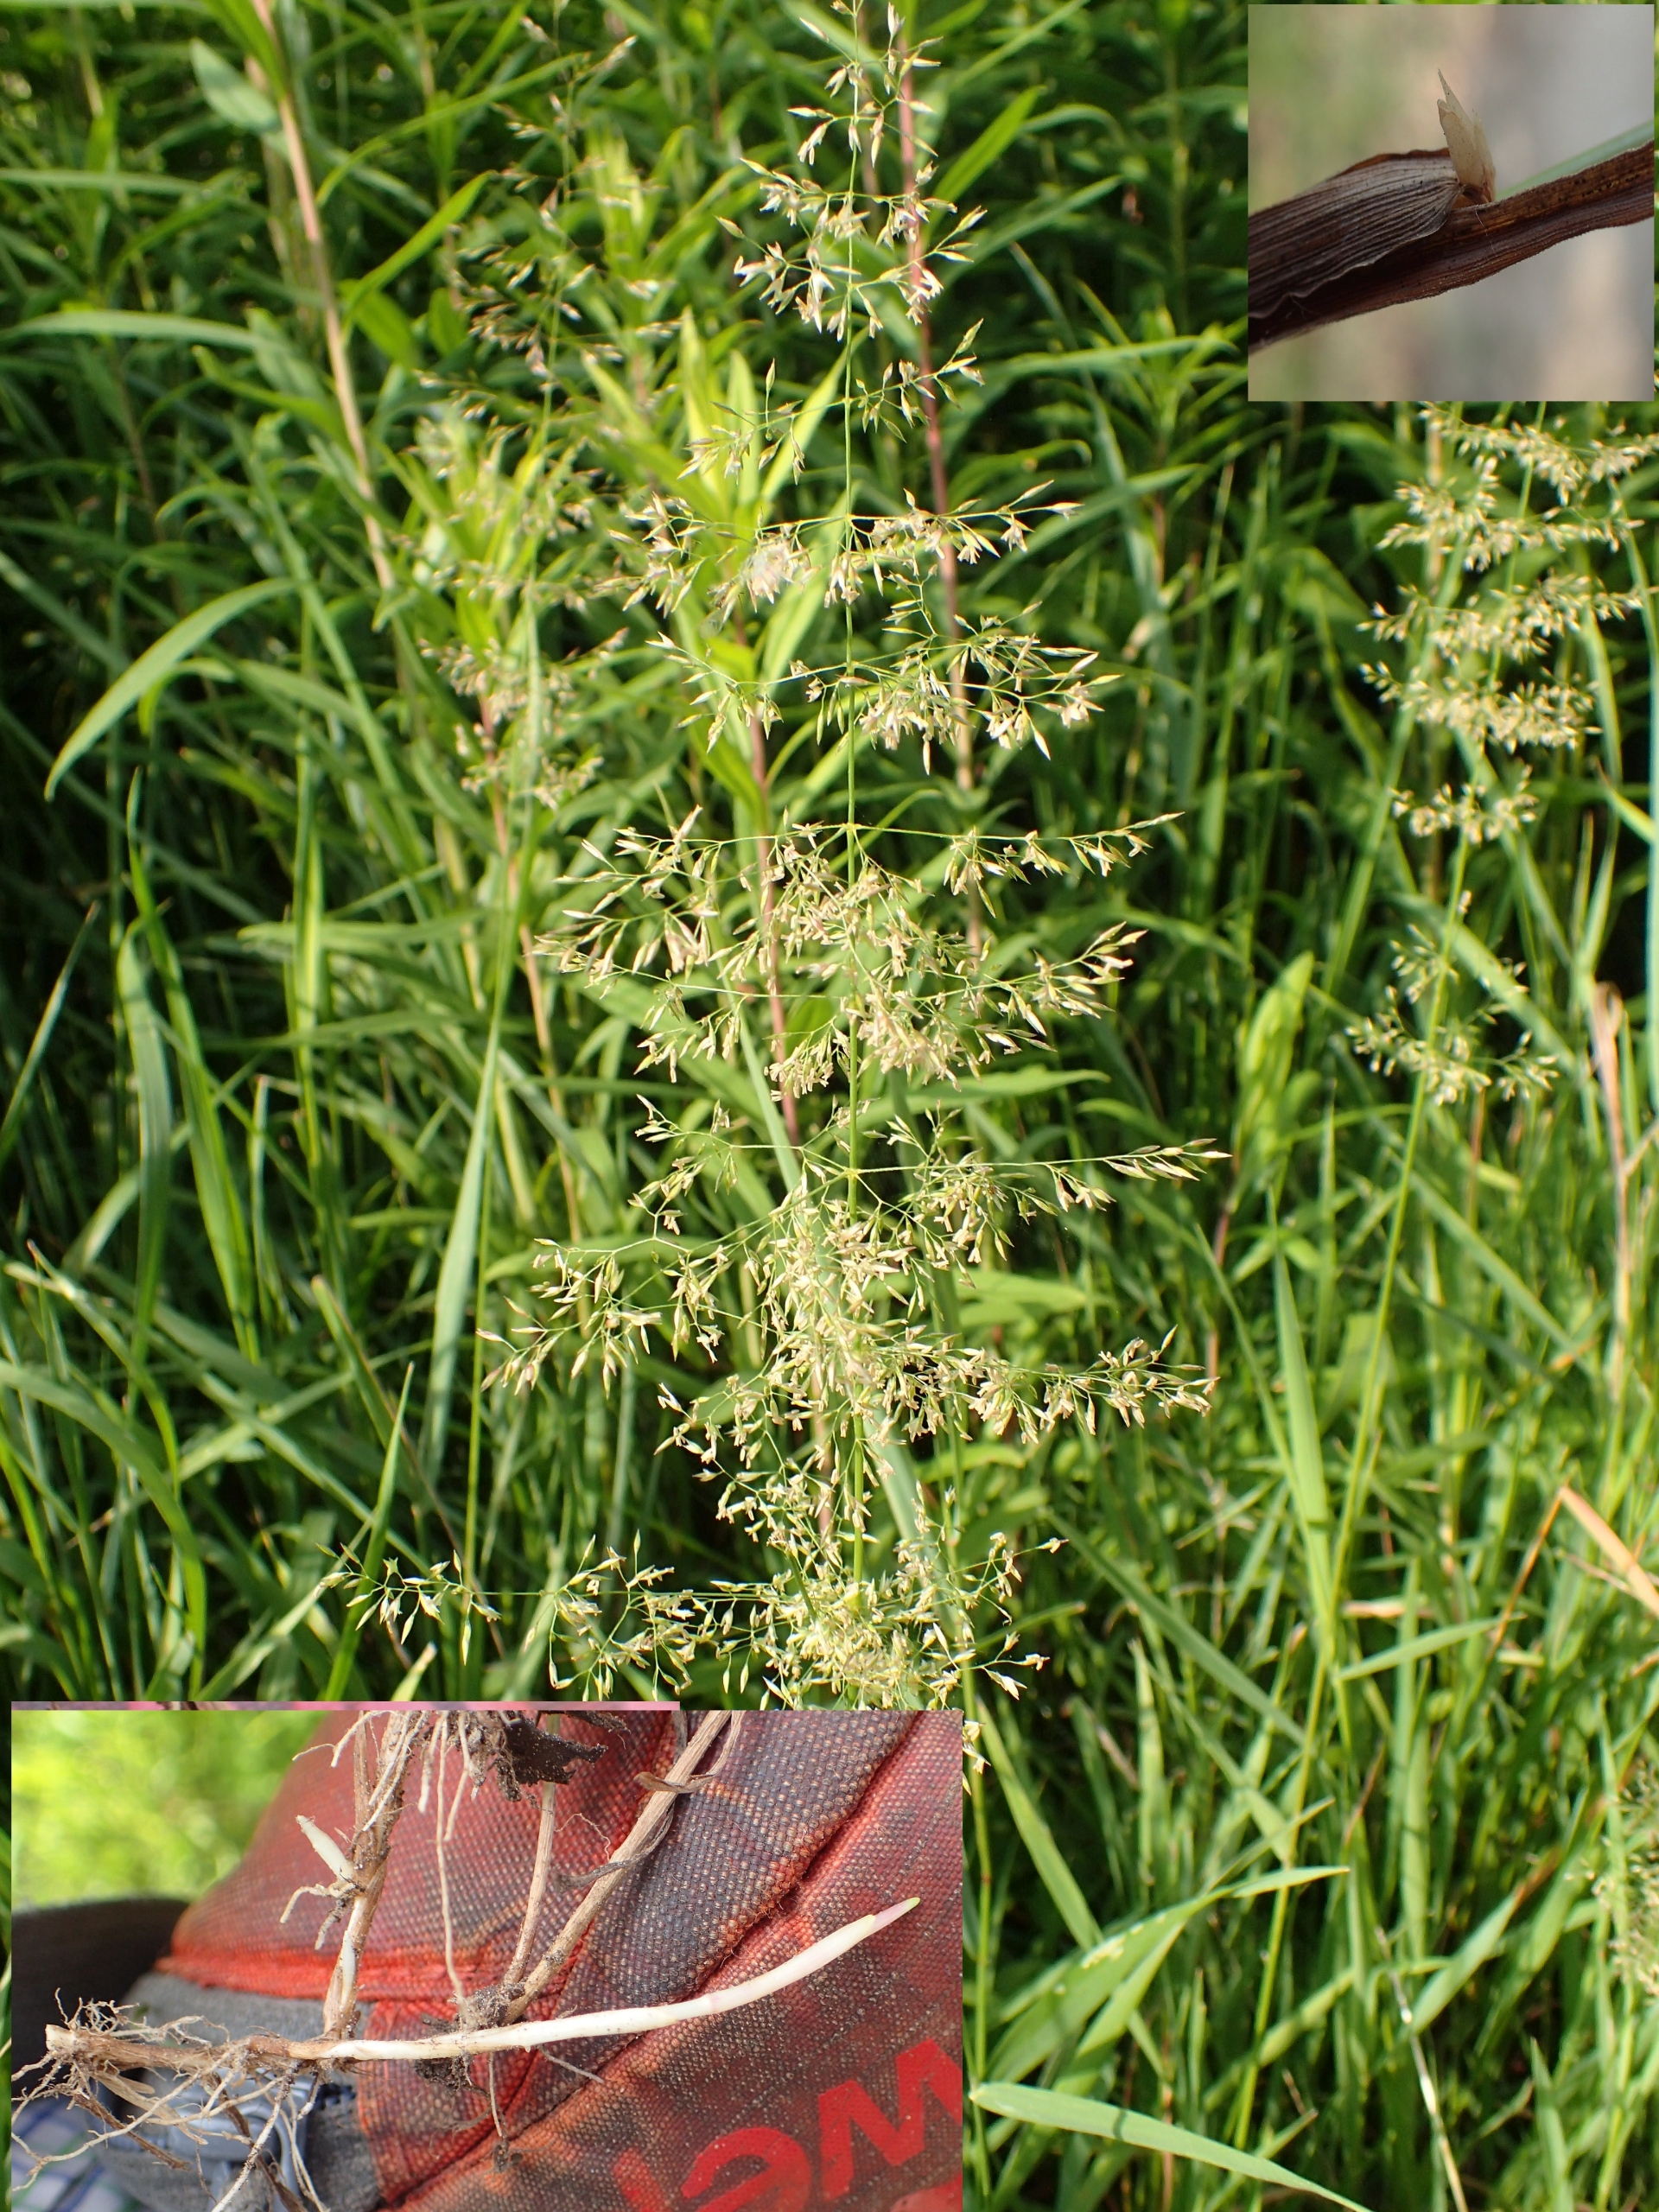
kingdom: Plantae
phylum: Tracheophyta
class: Liliopsida
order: Poales
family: Poaceae
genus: Agrostis
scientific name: Agrostis gigantea
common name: Stortoppet hvene
